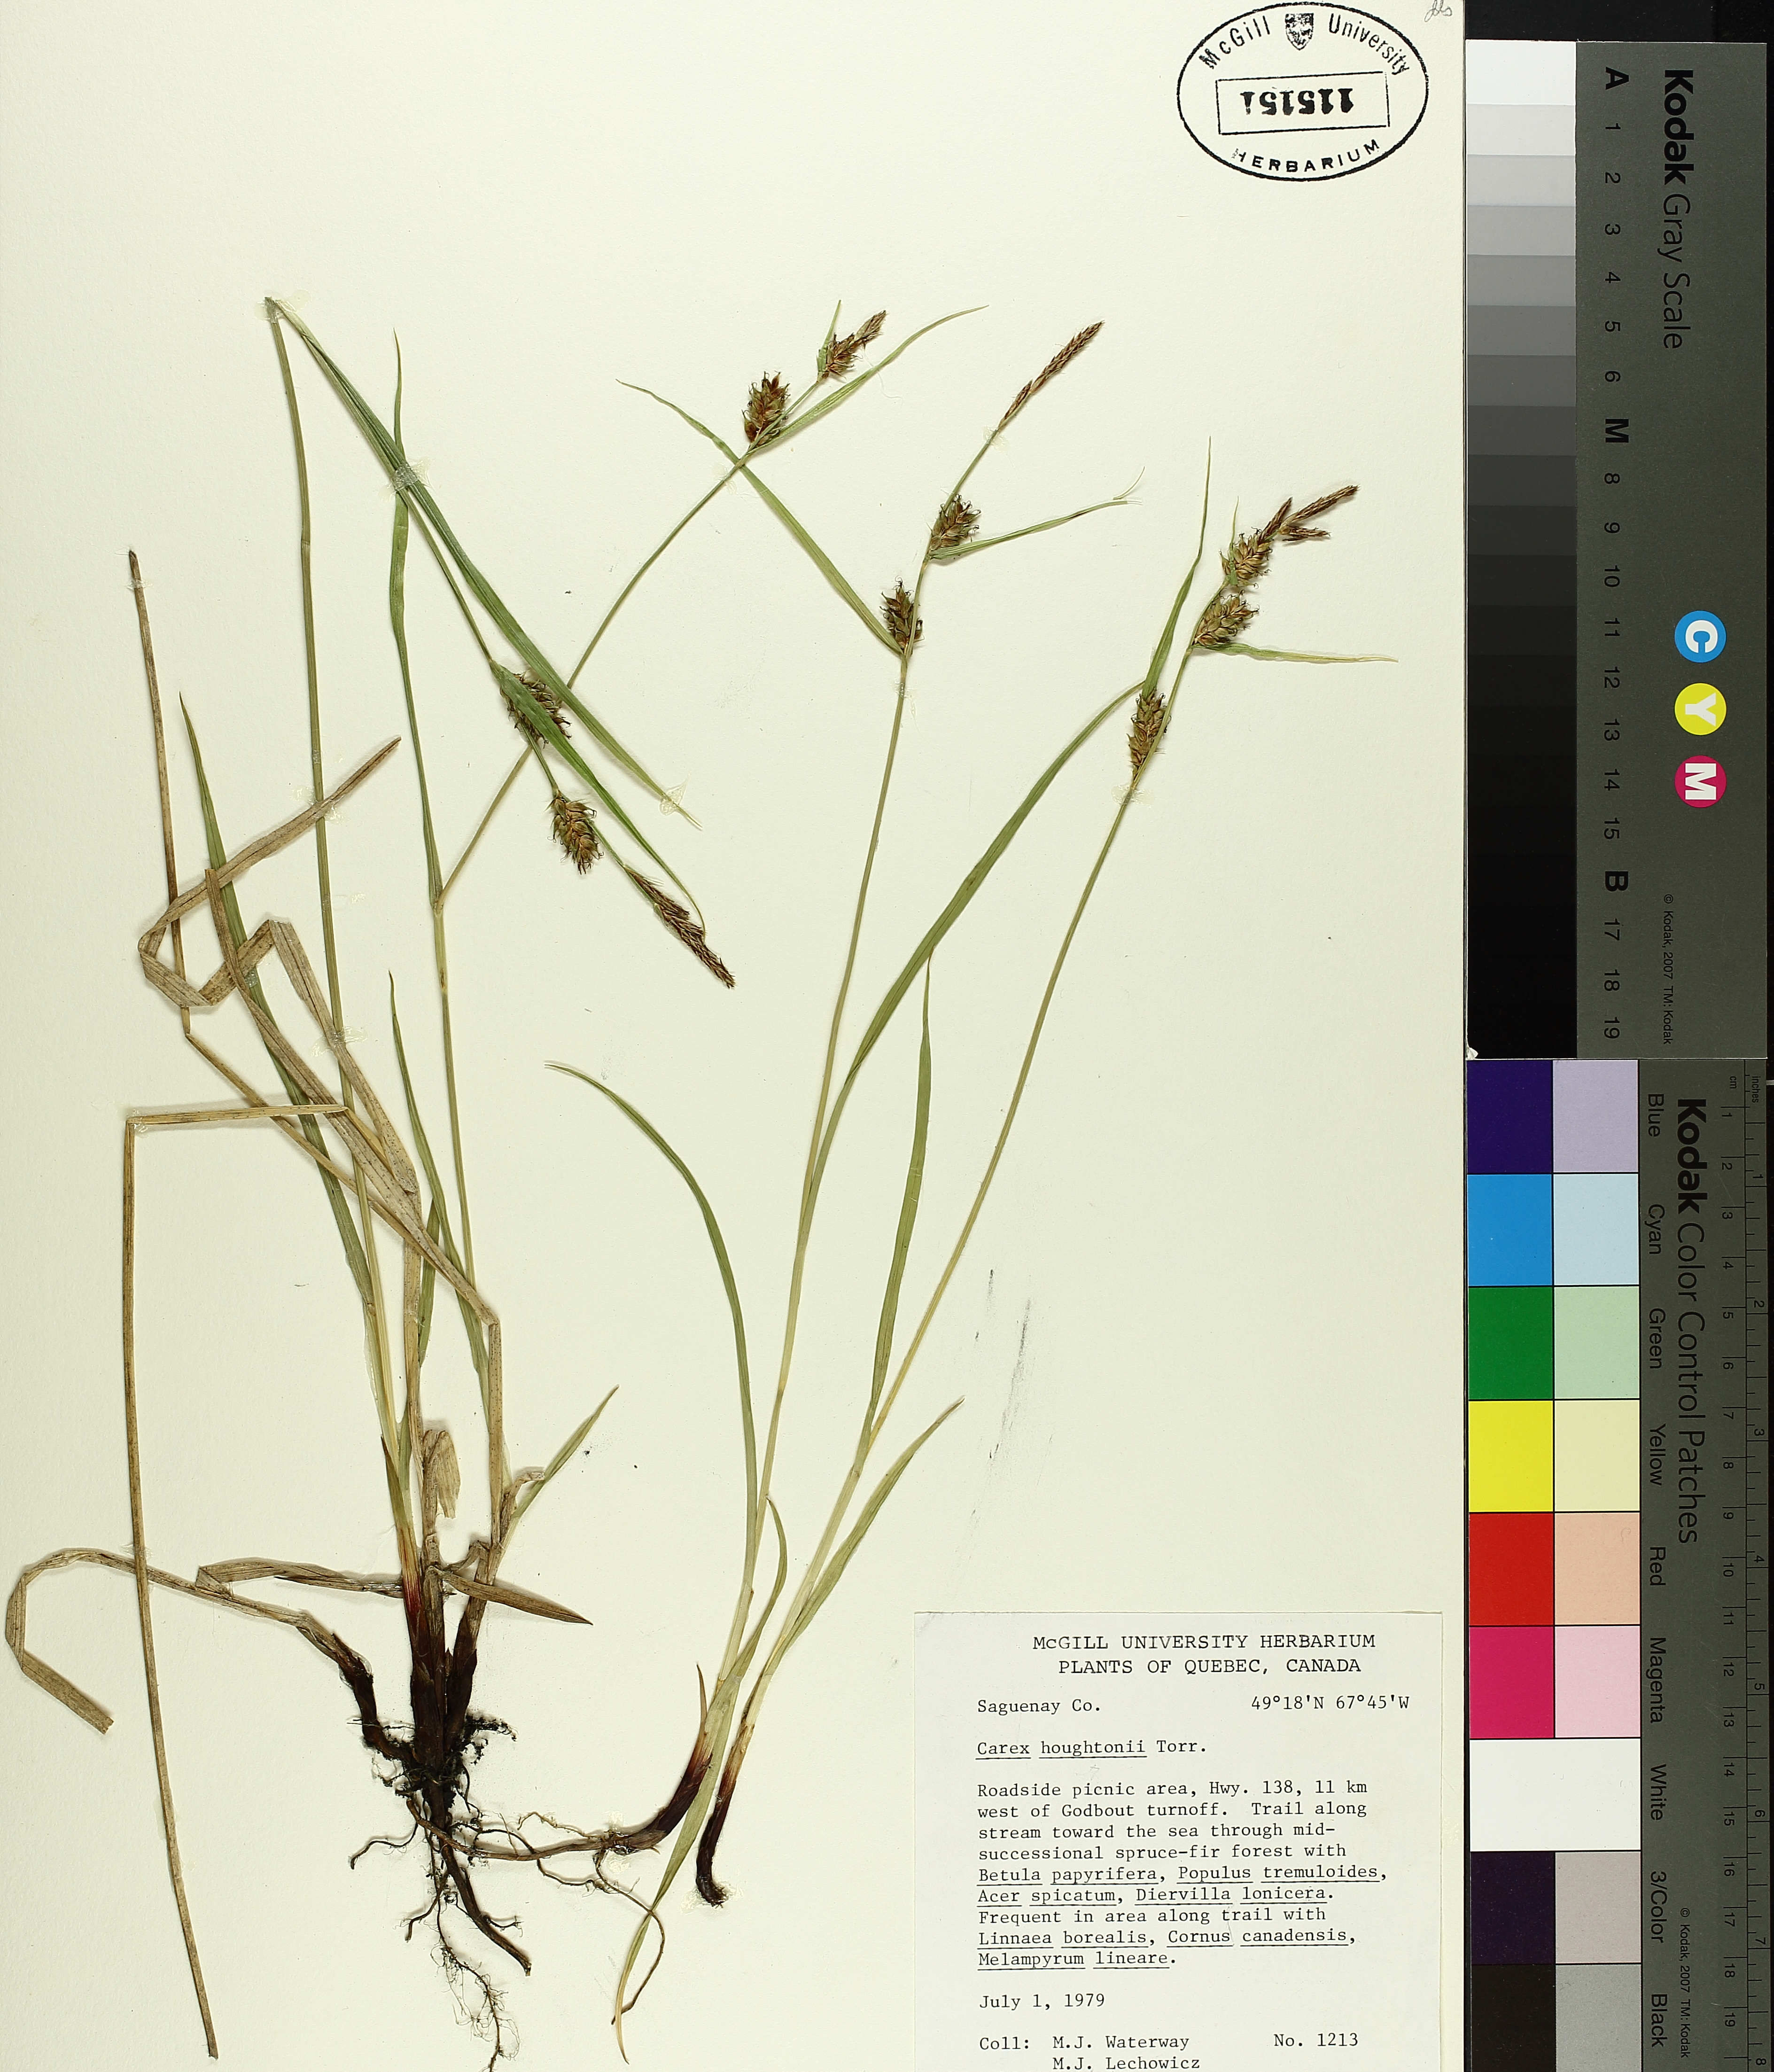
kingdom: Plantae
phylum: Tracheophyta
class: Liliopsida
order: Poales
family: Cyperaceae
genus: Carex
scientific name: Carex houghtoniana
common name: Houghton's sedge
